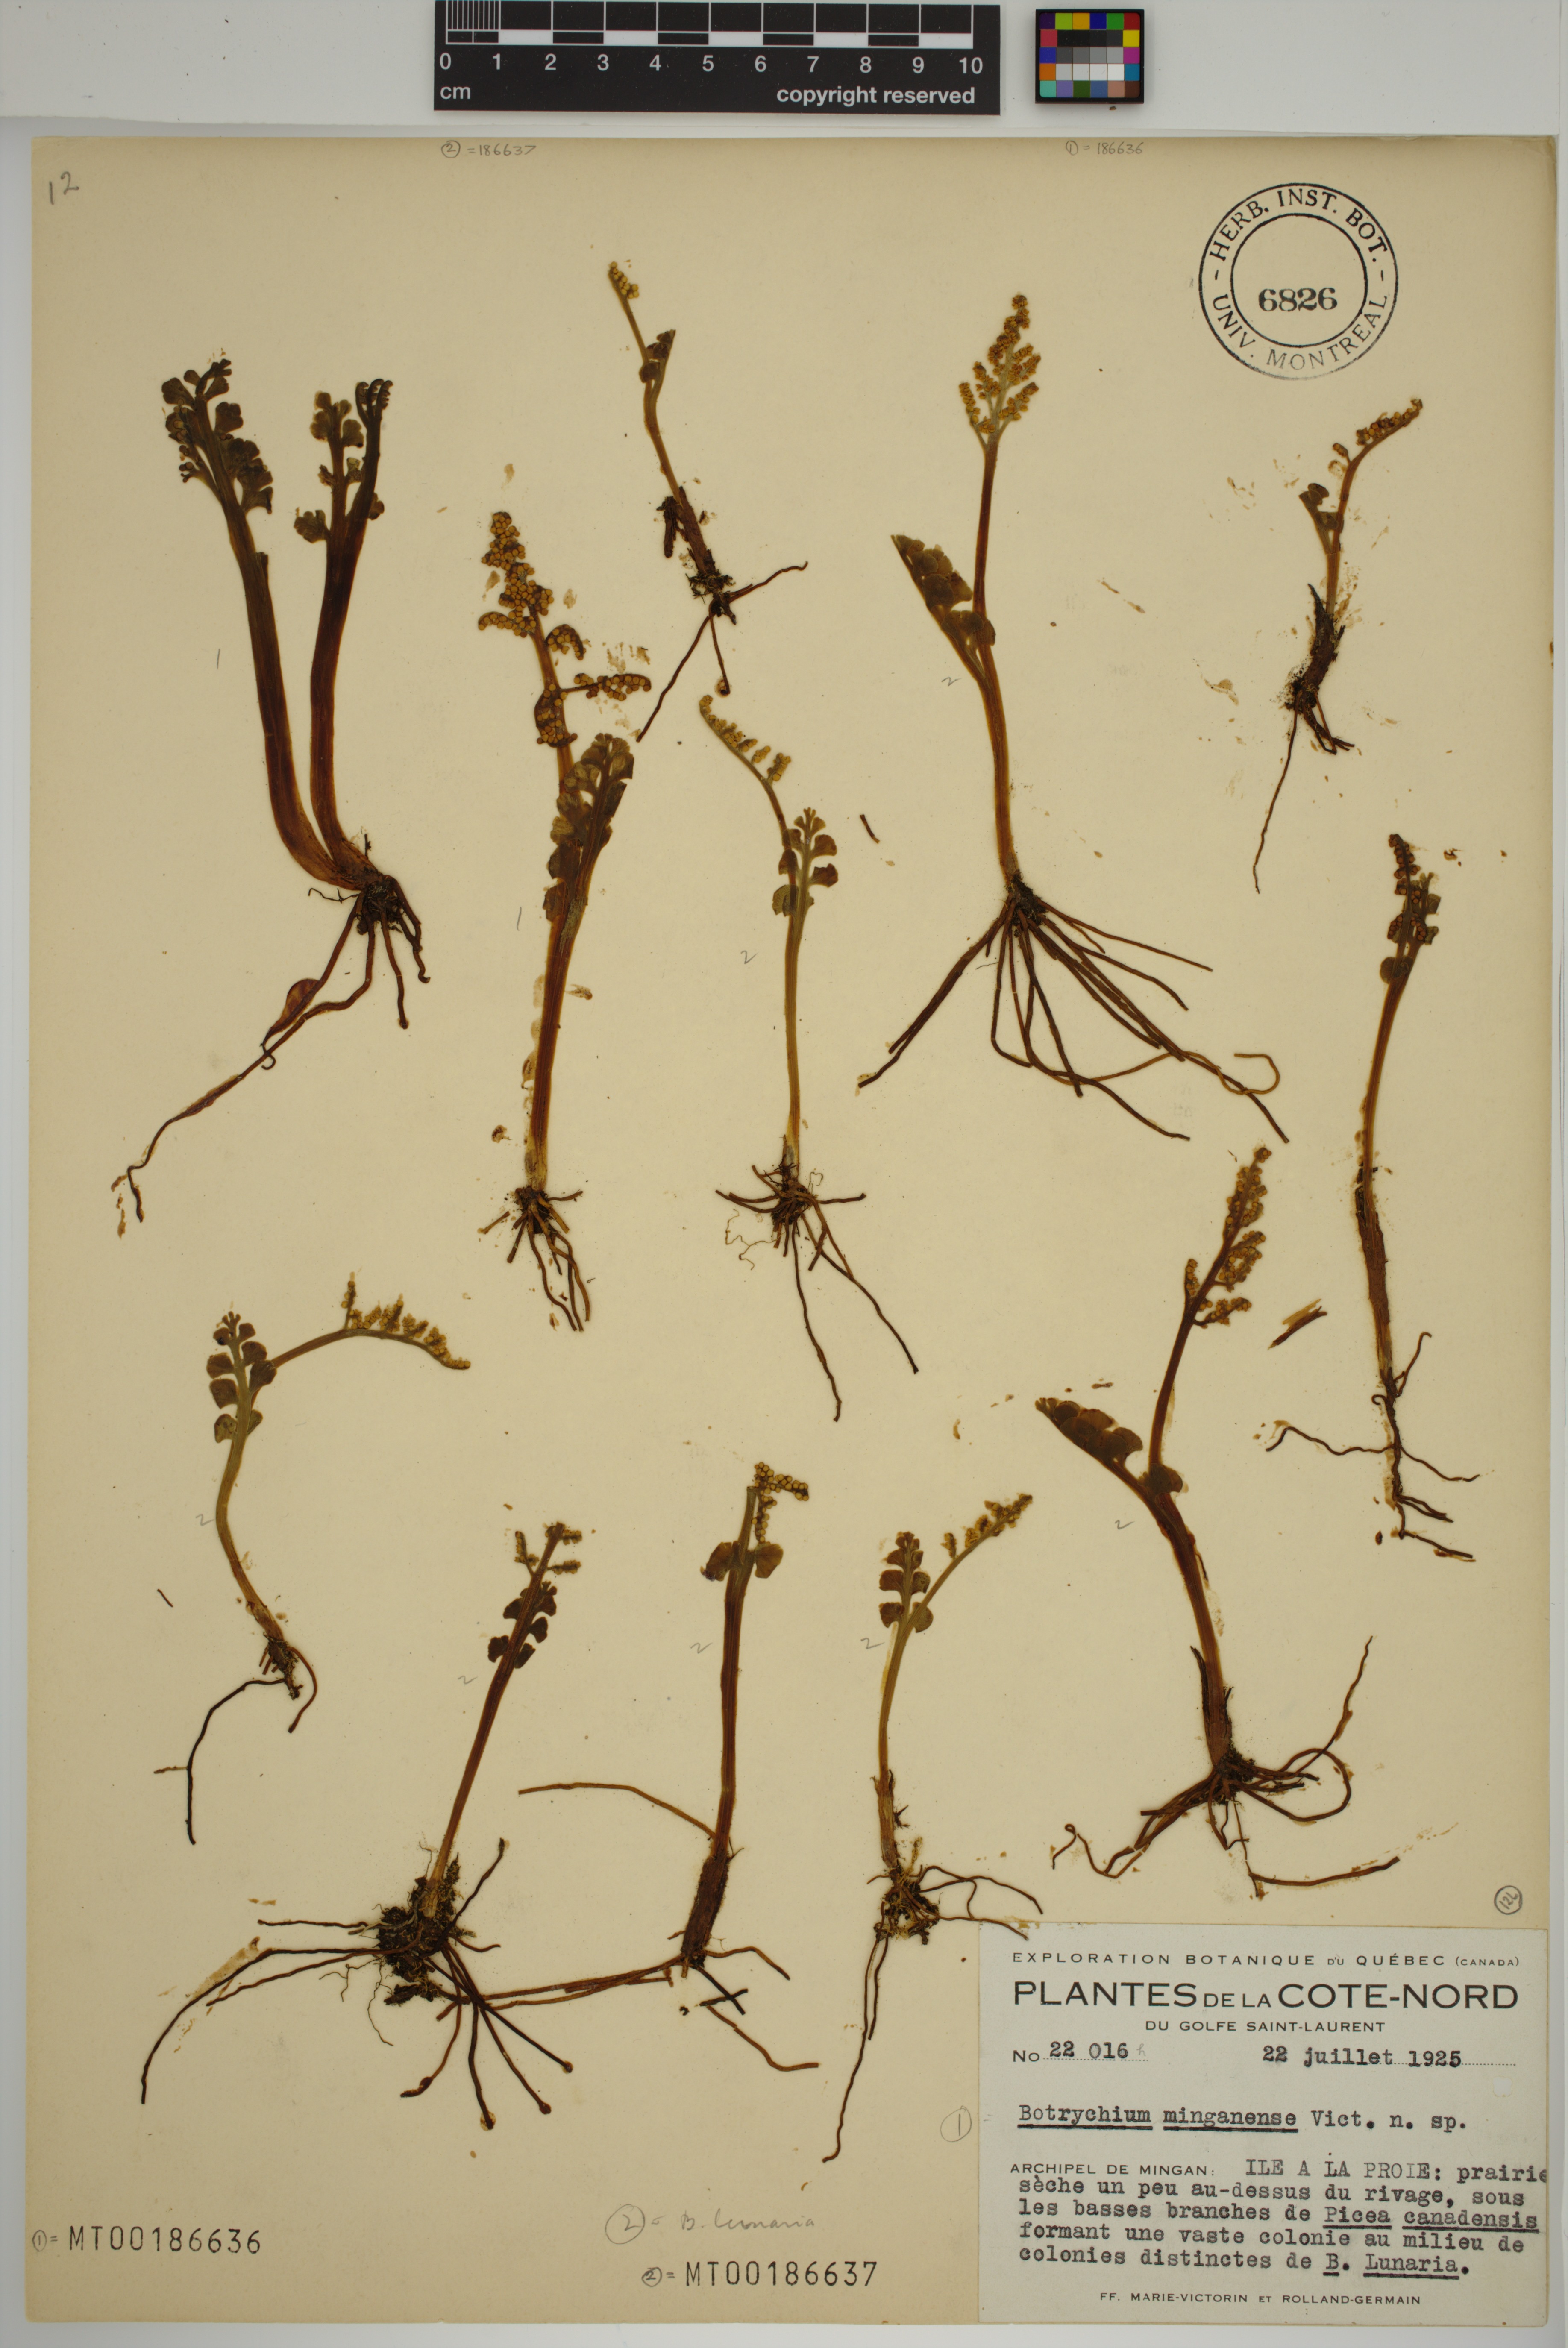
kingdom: Plantae
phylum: Tracheophyta
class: Polypodiopsida
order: Ophioglossales
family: Ophioglossaceae
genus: Botrychium
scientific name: Botrychium lunaria
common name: Moonwort
